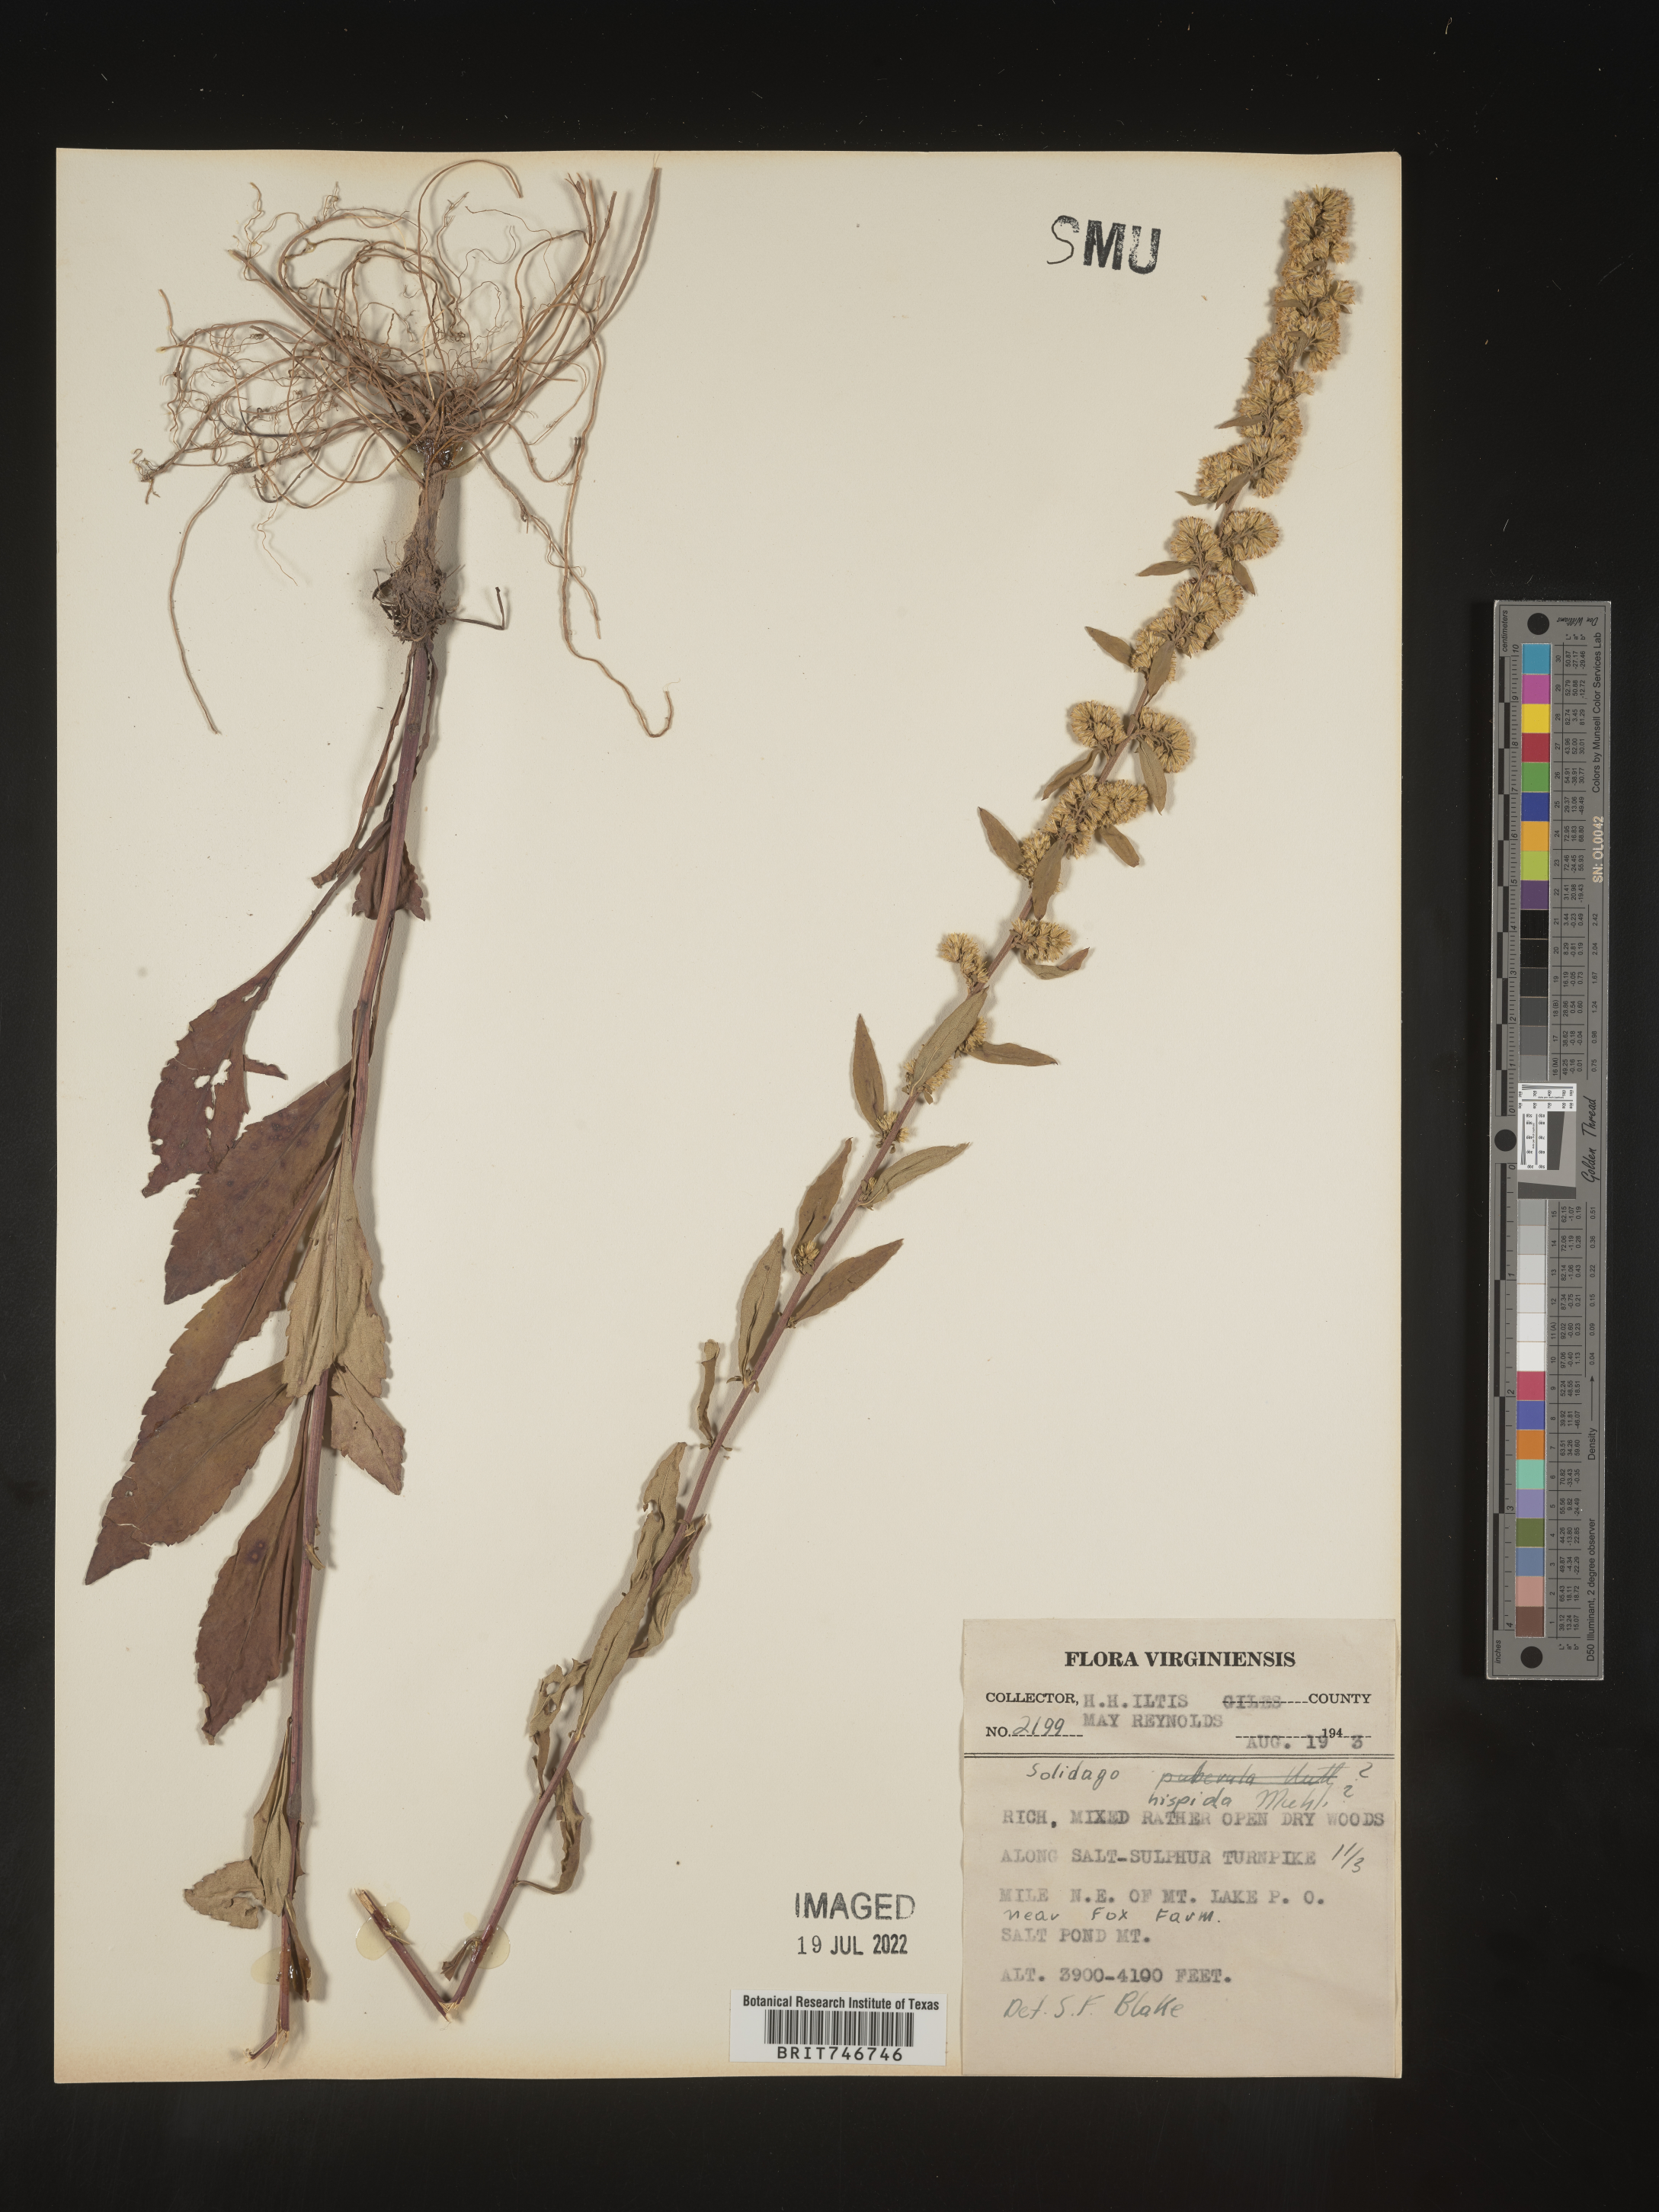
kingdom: Plantae
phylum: Tracheophyta
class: Magnoliopsida
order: Asterales
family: Asteraceae
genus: Solidago
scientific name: Solidago hispida
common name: Hairy goldenrod
